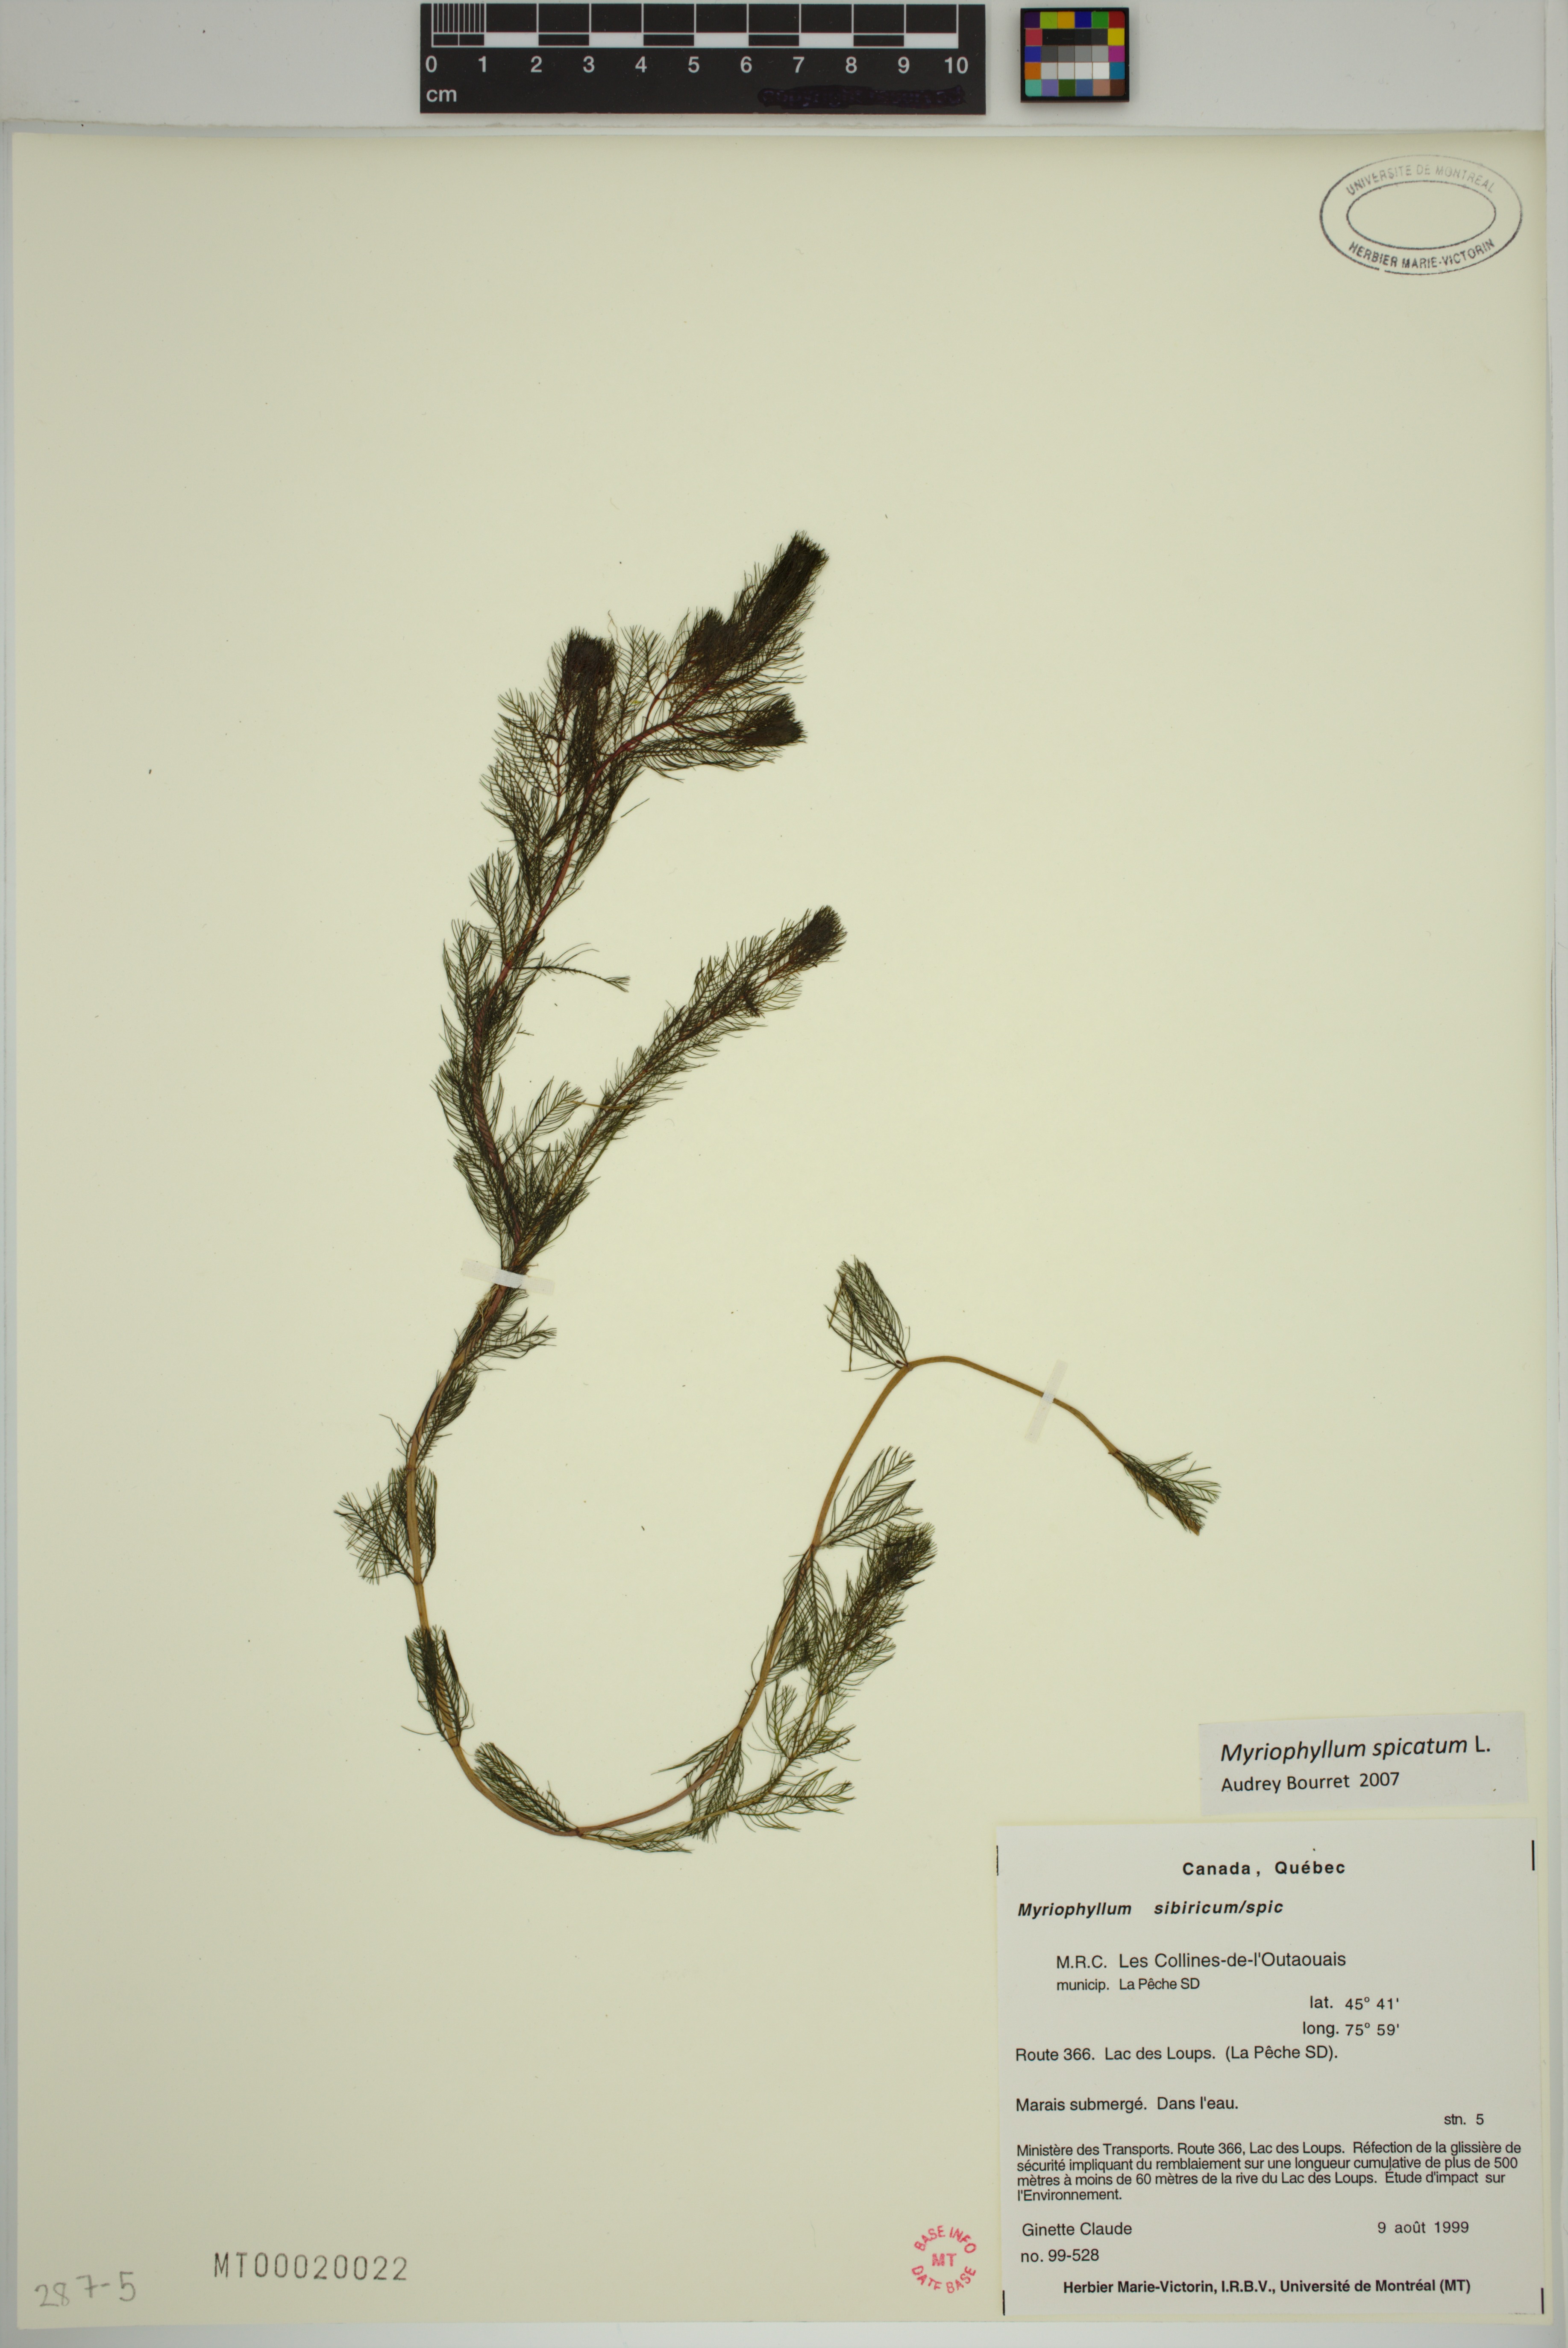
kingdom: Plantae
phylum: Tracheophyta
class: Magnoliopsida
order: Saxifragales
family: Haloragaceae
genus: Myriophyllum
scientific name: Myriophyllum spicatum
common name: Spiked water-milfoil
